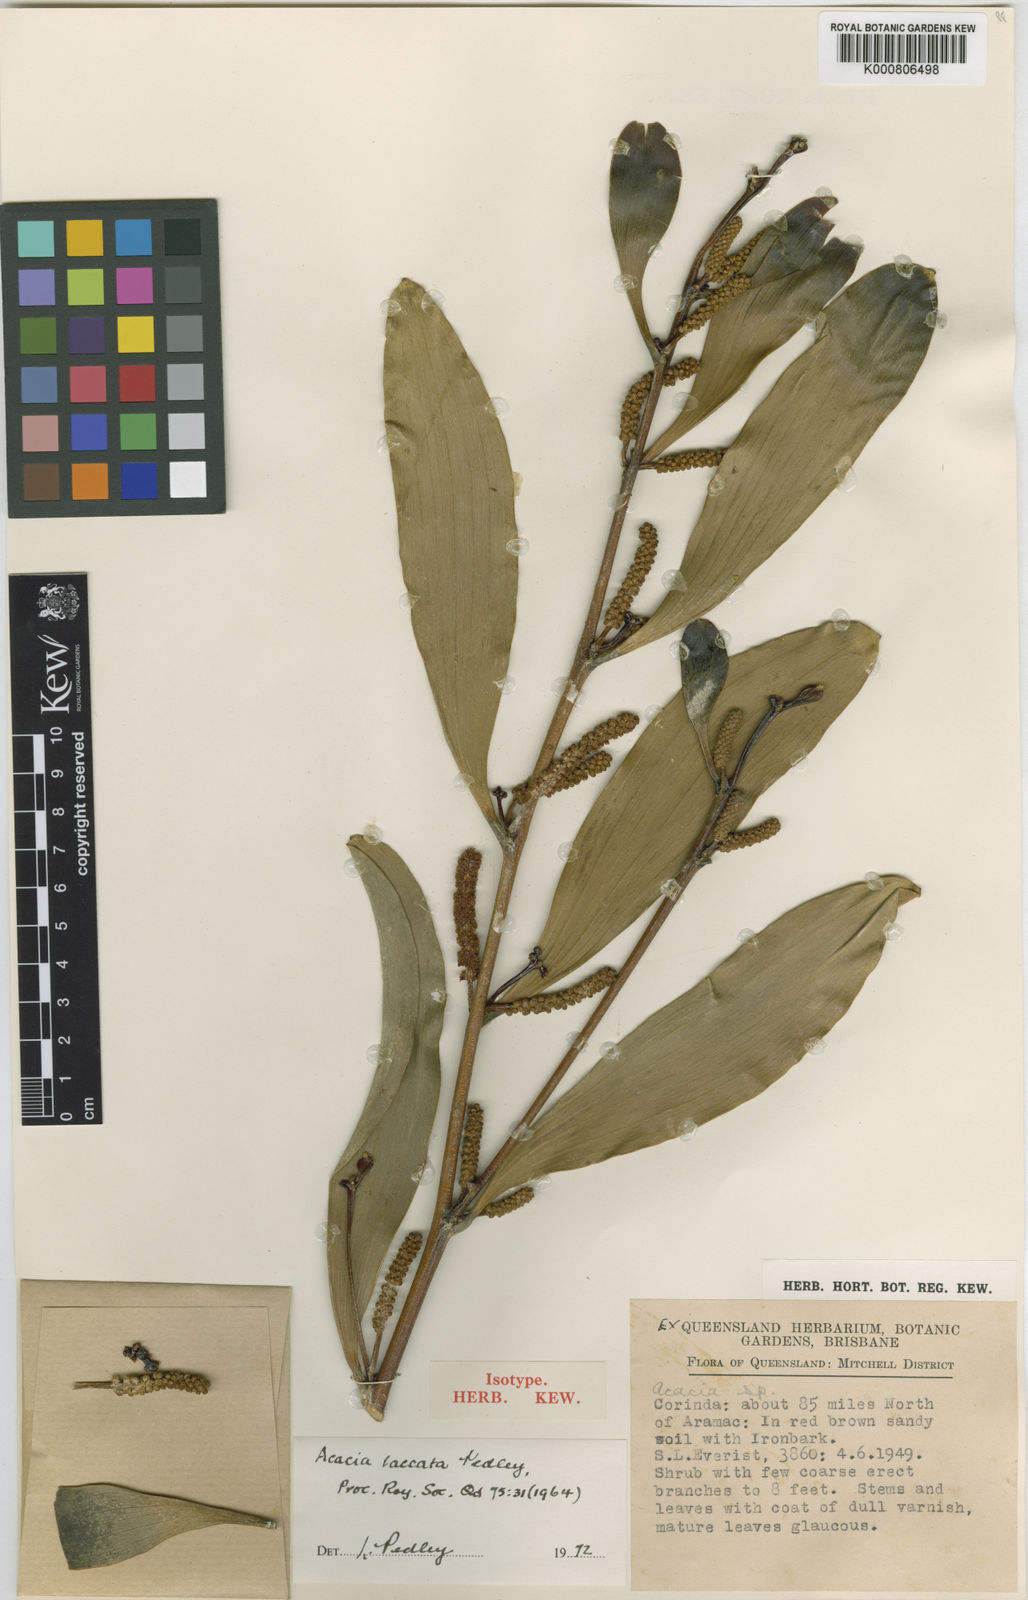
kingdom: Plantae
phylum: Tracheophyta
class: Magnoliopsida
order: Fabales
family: Fabaceae
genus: Acacia
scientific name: Acacia laccata
